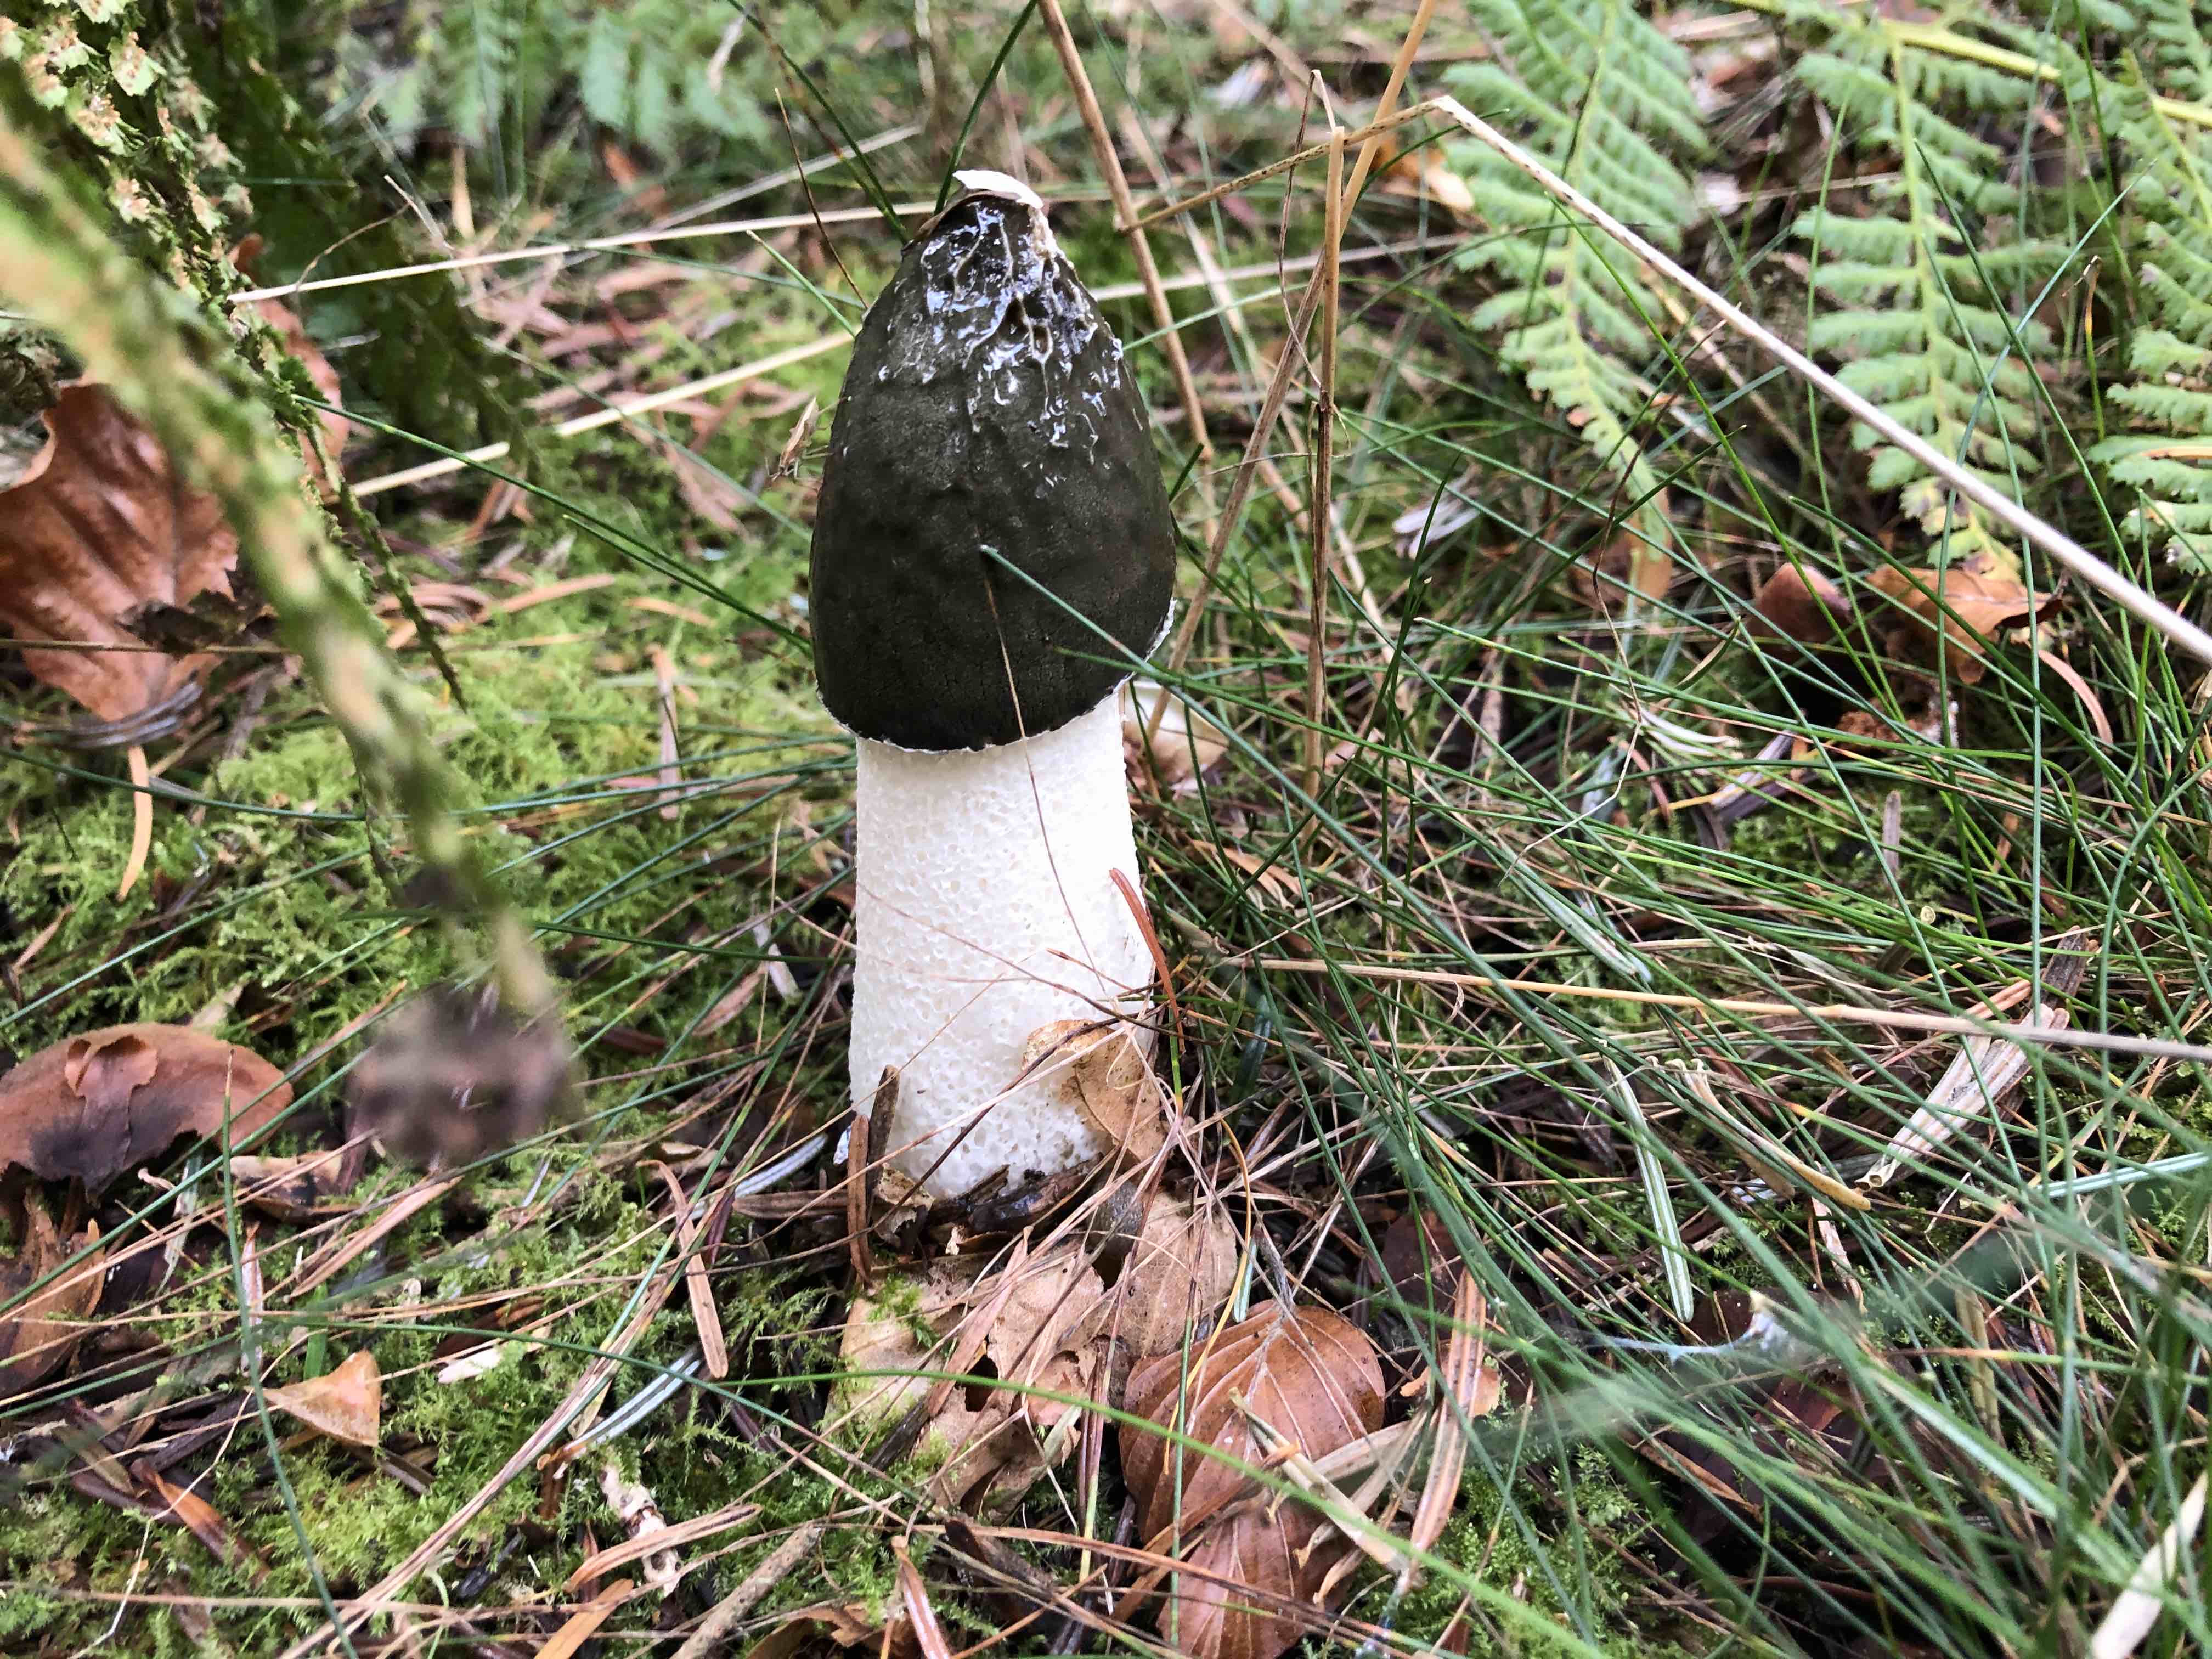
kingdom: Fungi
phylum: Basidiomycota
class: Agaricomycetes
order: Phallales
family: Phallaceae
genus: Phallus
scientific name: Phallus impudicus
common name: almindelig stinksvamp
